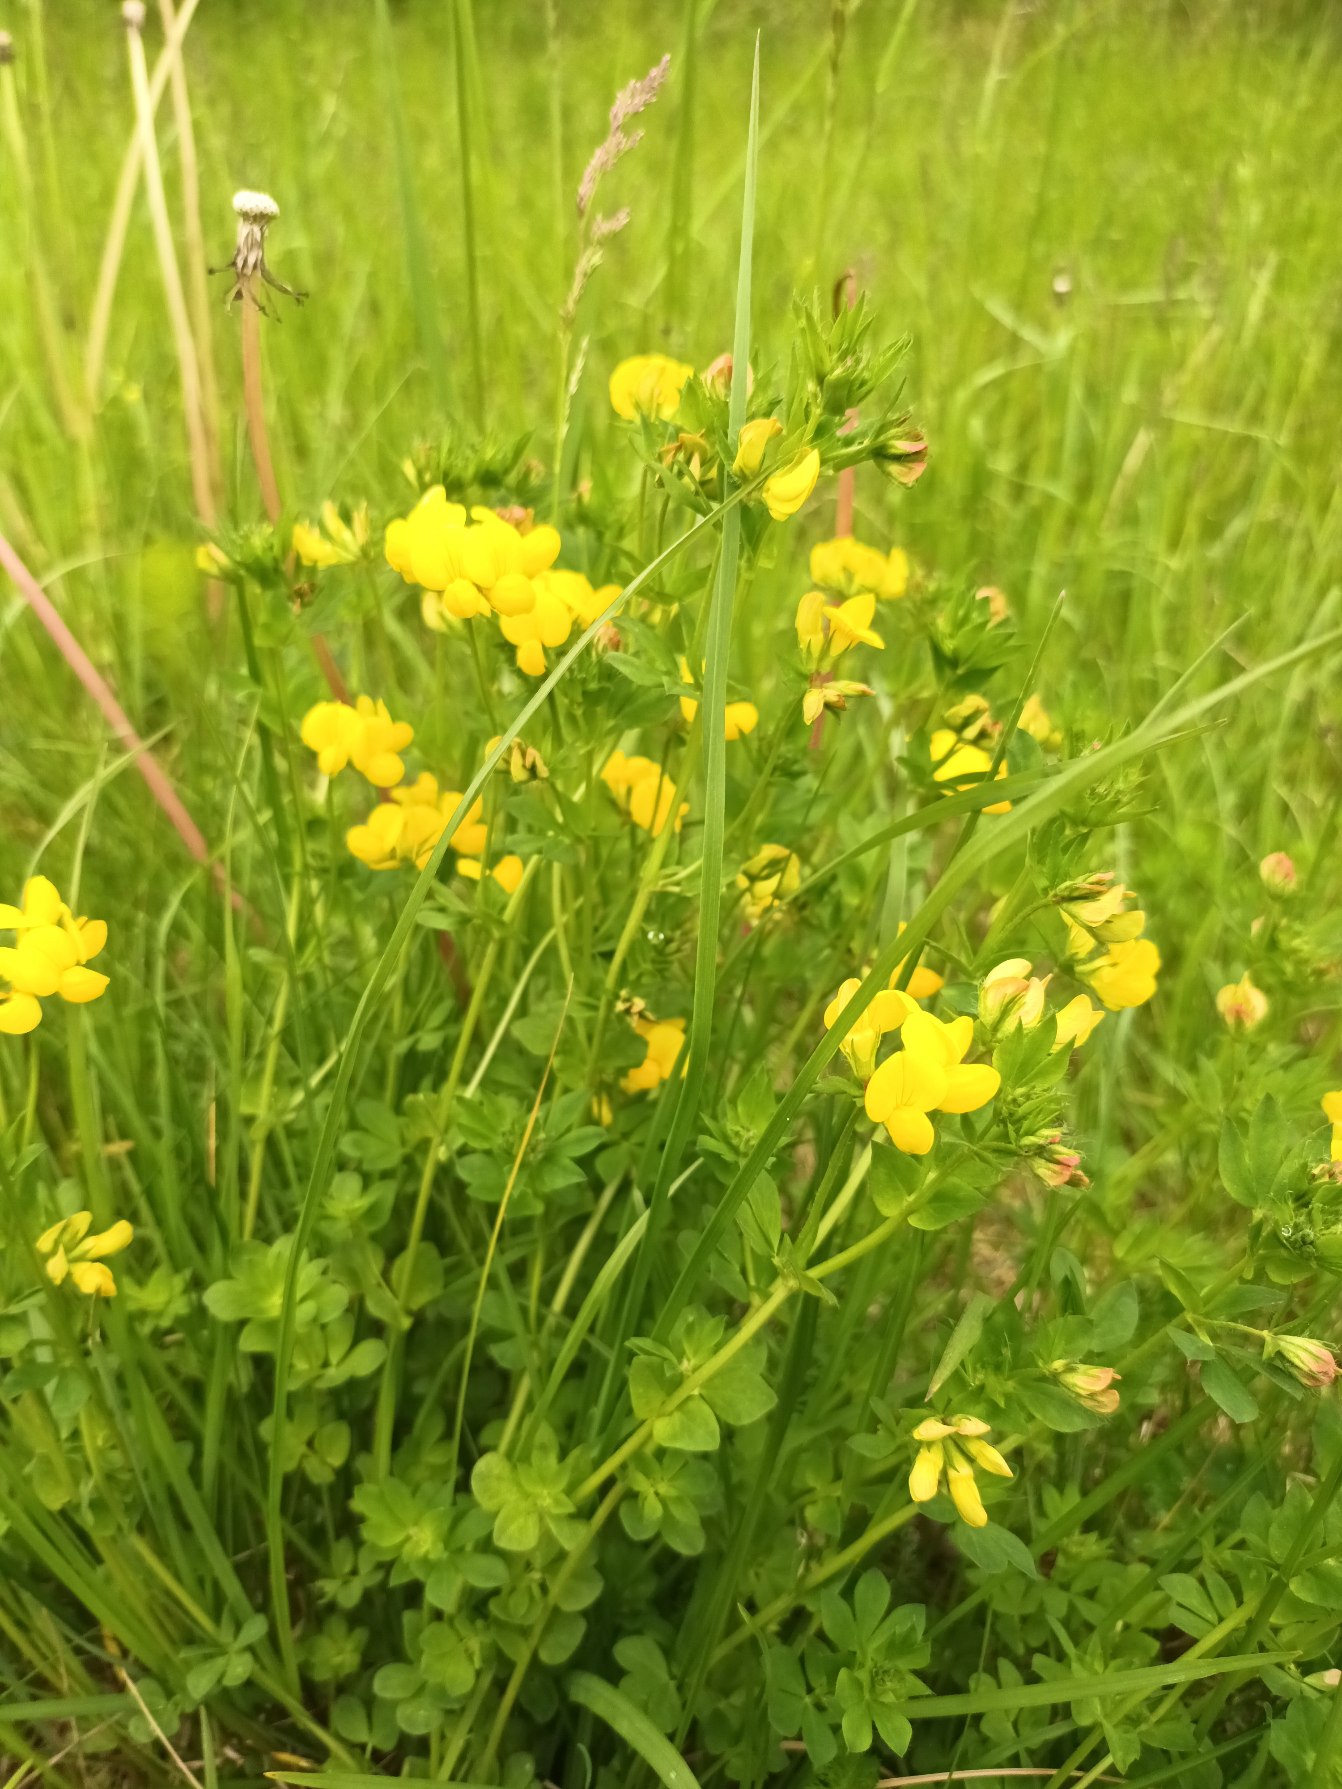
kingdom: Plantae
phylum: Tracheophyta
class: Magnoliopsida
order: Fabales
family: Fabaceae
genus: Lotus
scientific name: Lotus corniculatus
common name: Almindelig kællingetand
